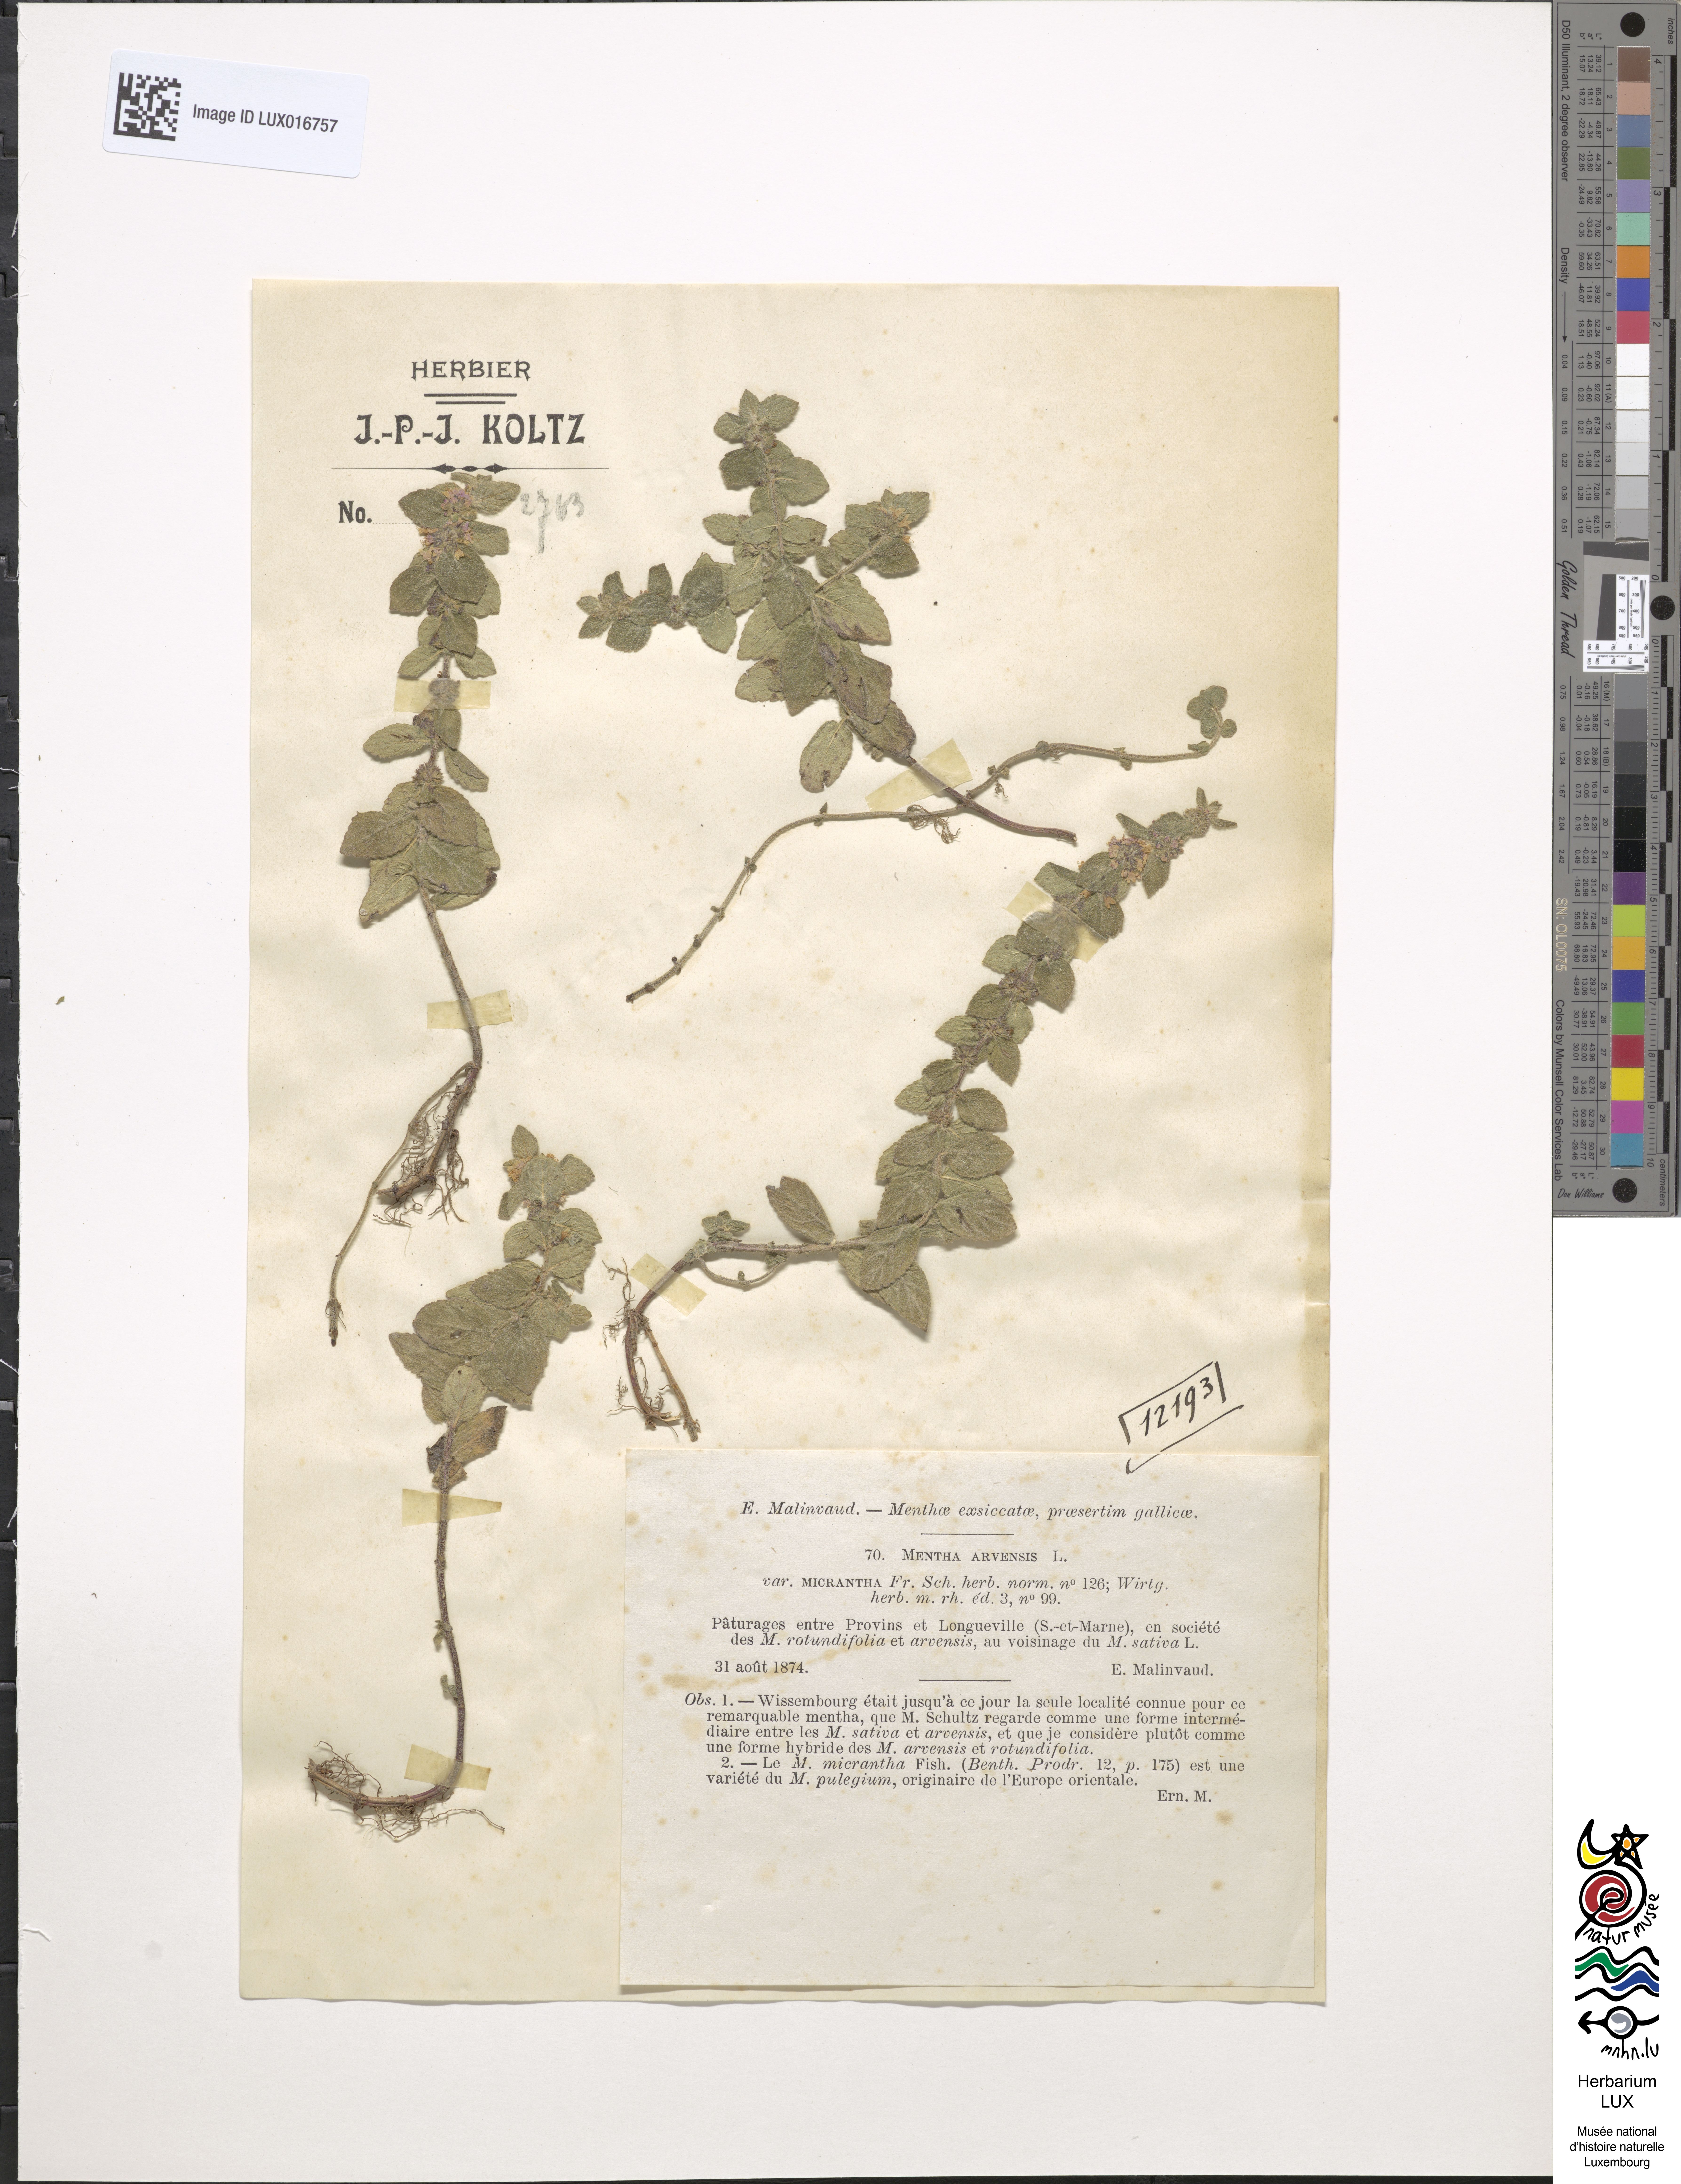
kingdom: Plantae
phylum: Tracheophyta
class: Magnoliopsida
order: Lamiales
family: Lamiaceae
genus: Mentha
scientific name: Mentha carinthiaca
